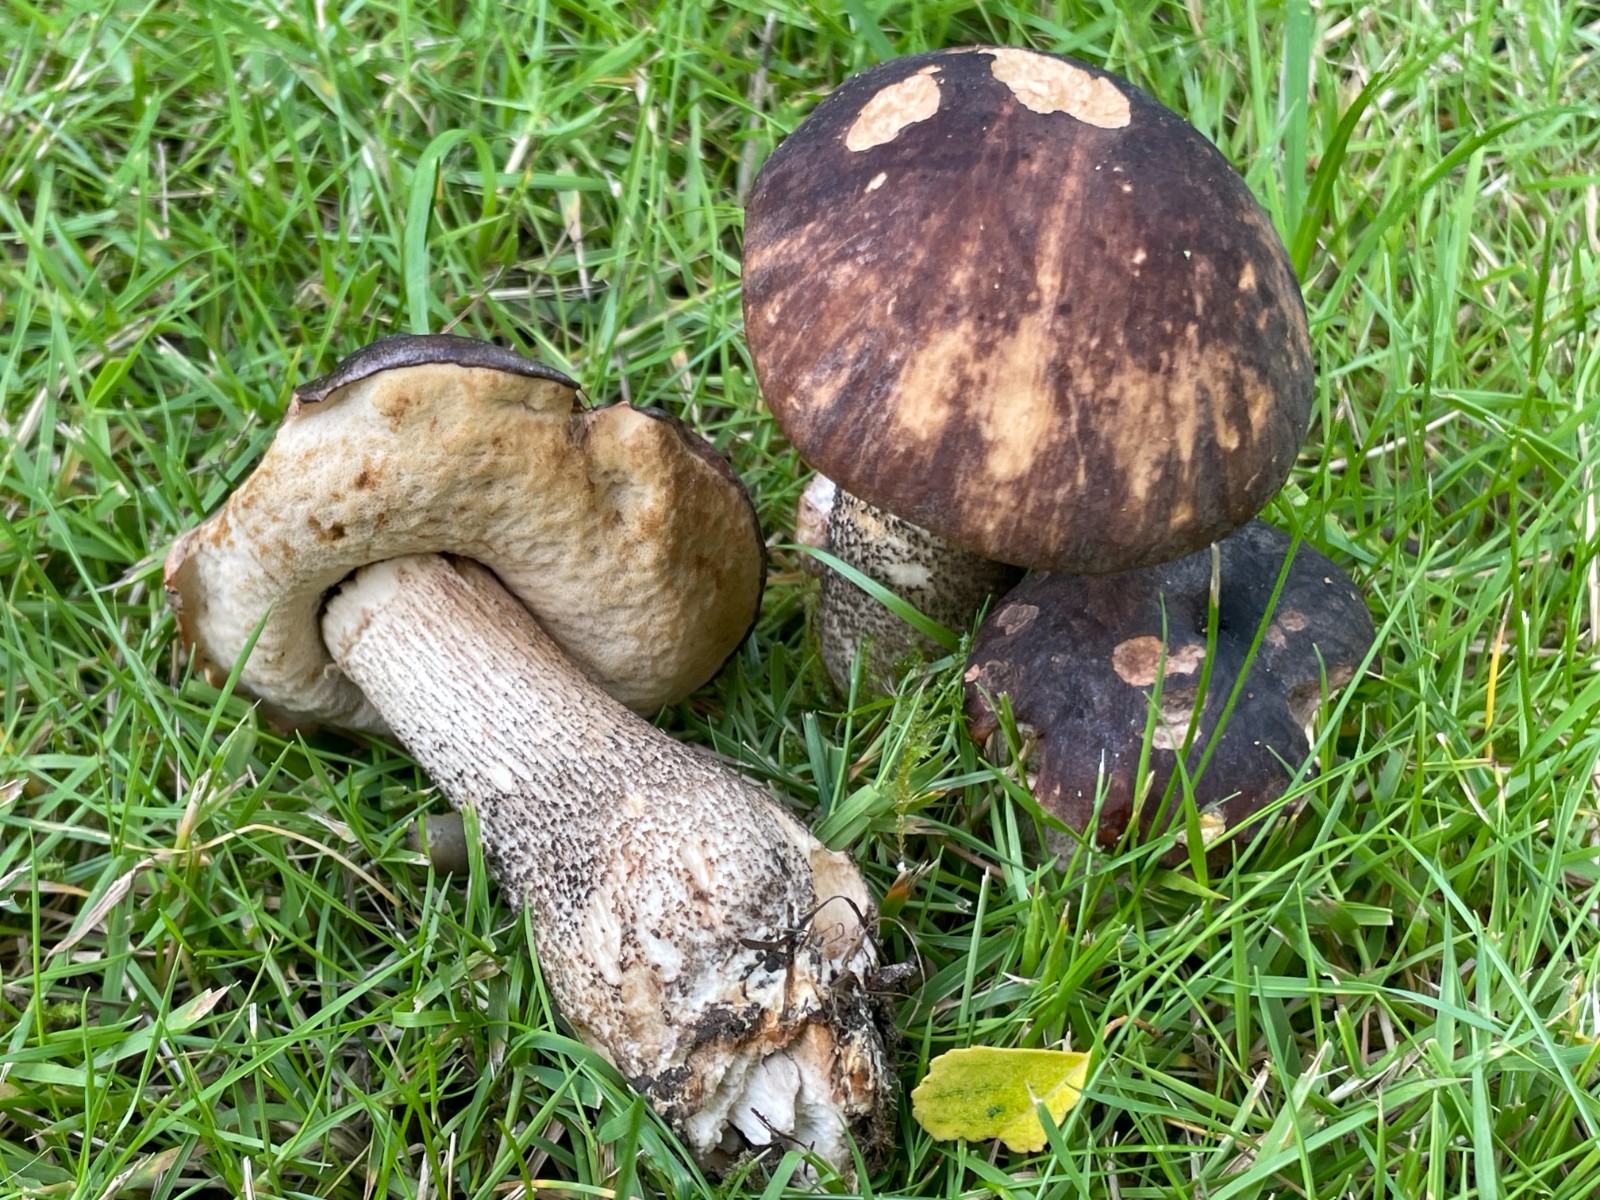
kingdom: Fungi
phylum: Basidiomycota
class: Agaricomycetes
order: Boletales
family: Boletaceae
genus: Leccinum
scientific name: Leccinum melaneum
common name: mørk skælrørhat
